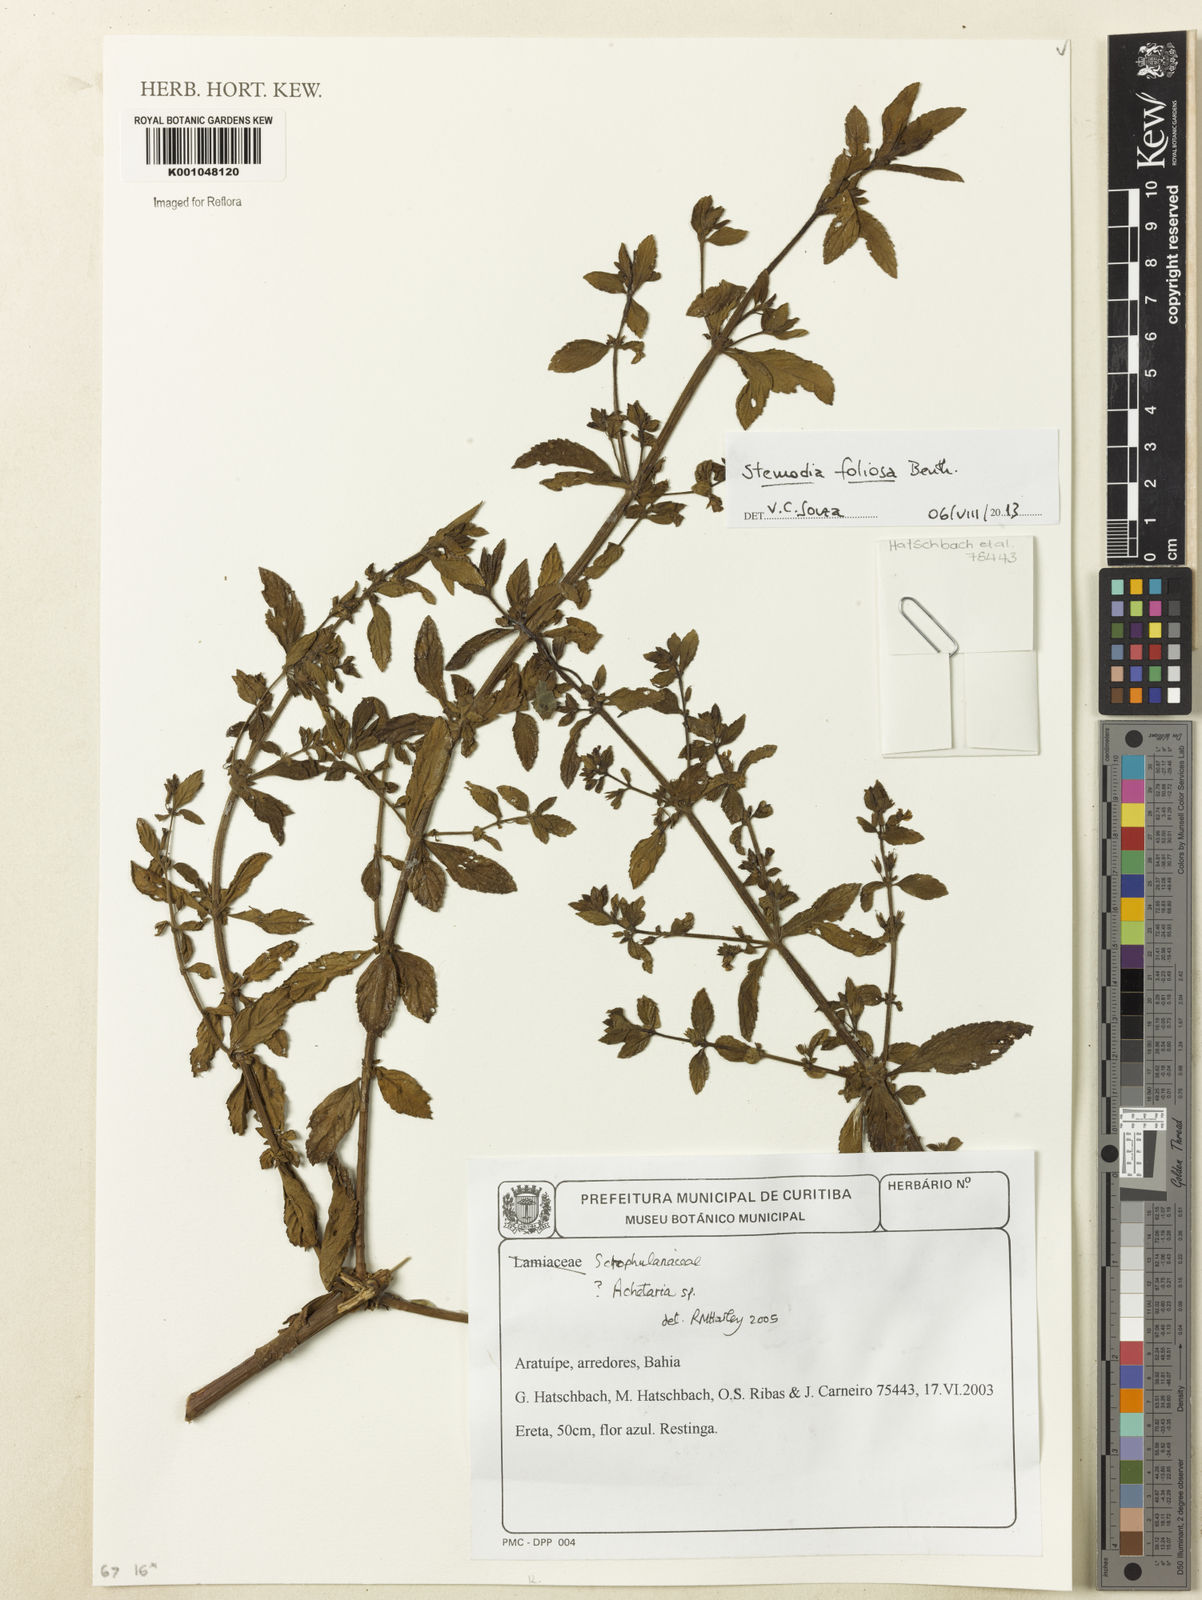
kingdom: Plantae
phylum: Tracheophyta
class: Magnoliopsida
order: Lamiales
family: Plantaginaceae
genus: Stemodia
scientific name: Stemodia foliosa
